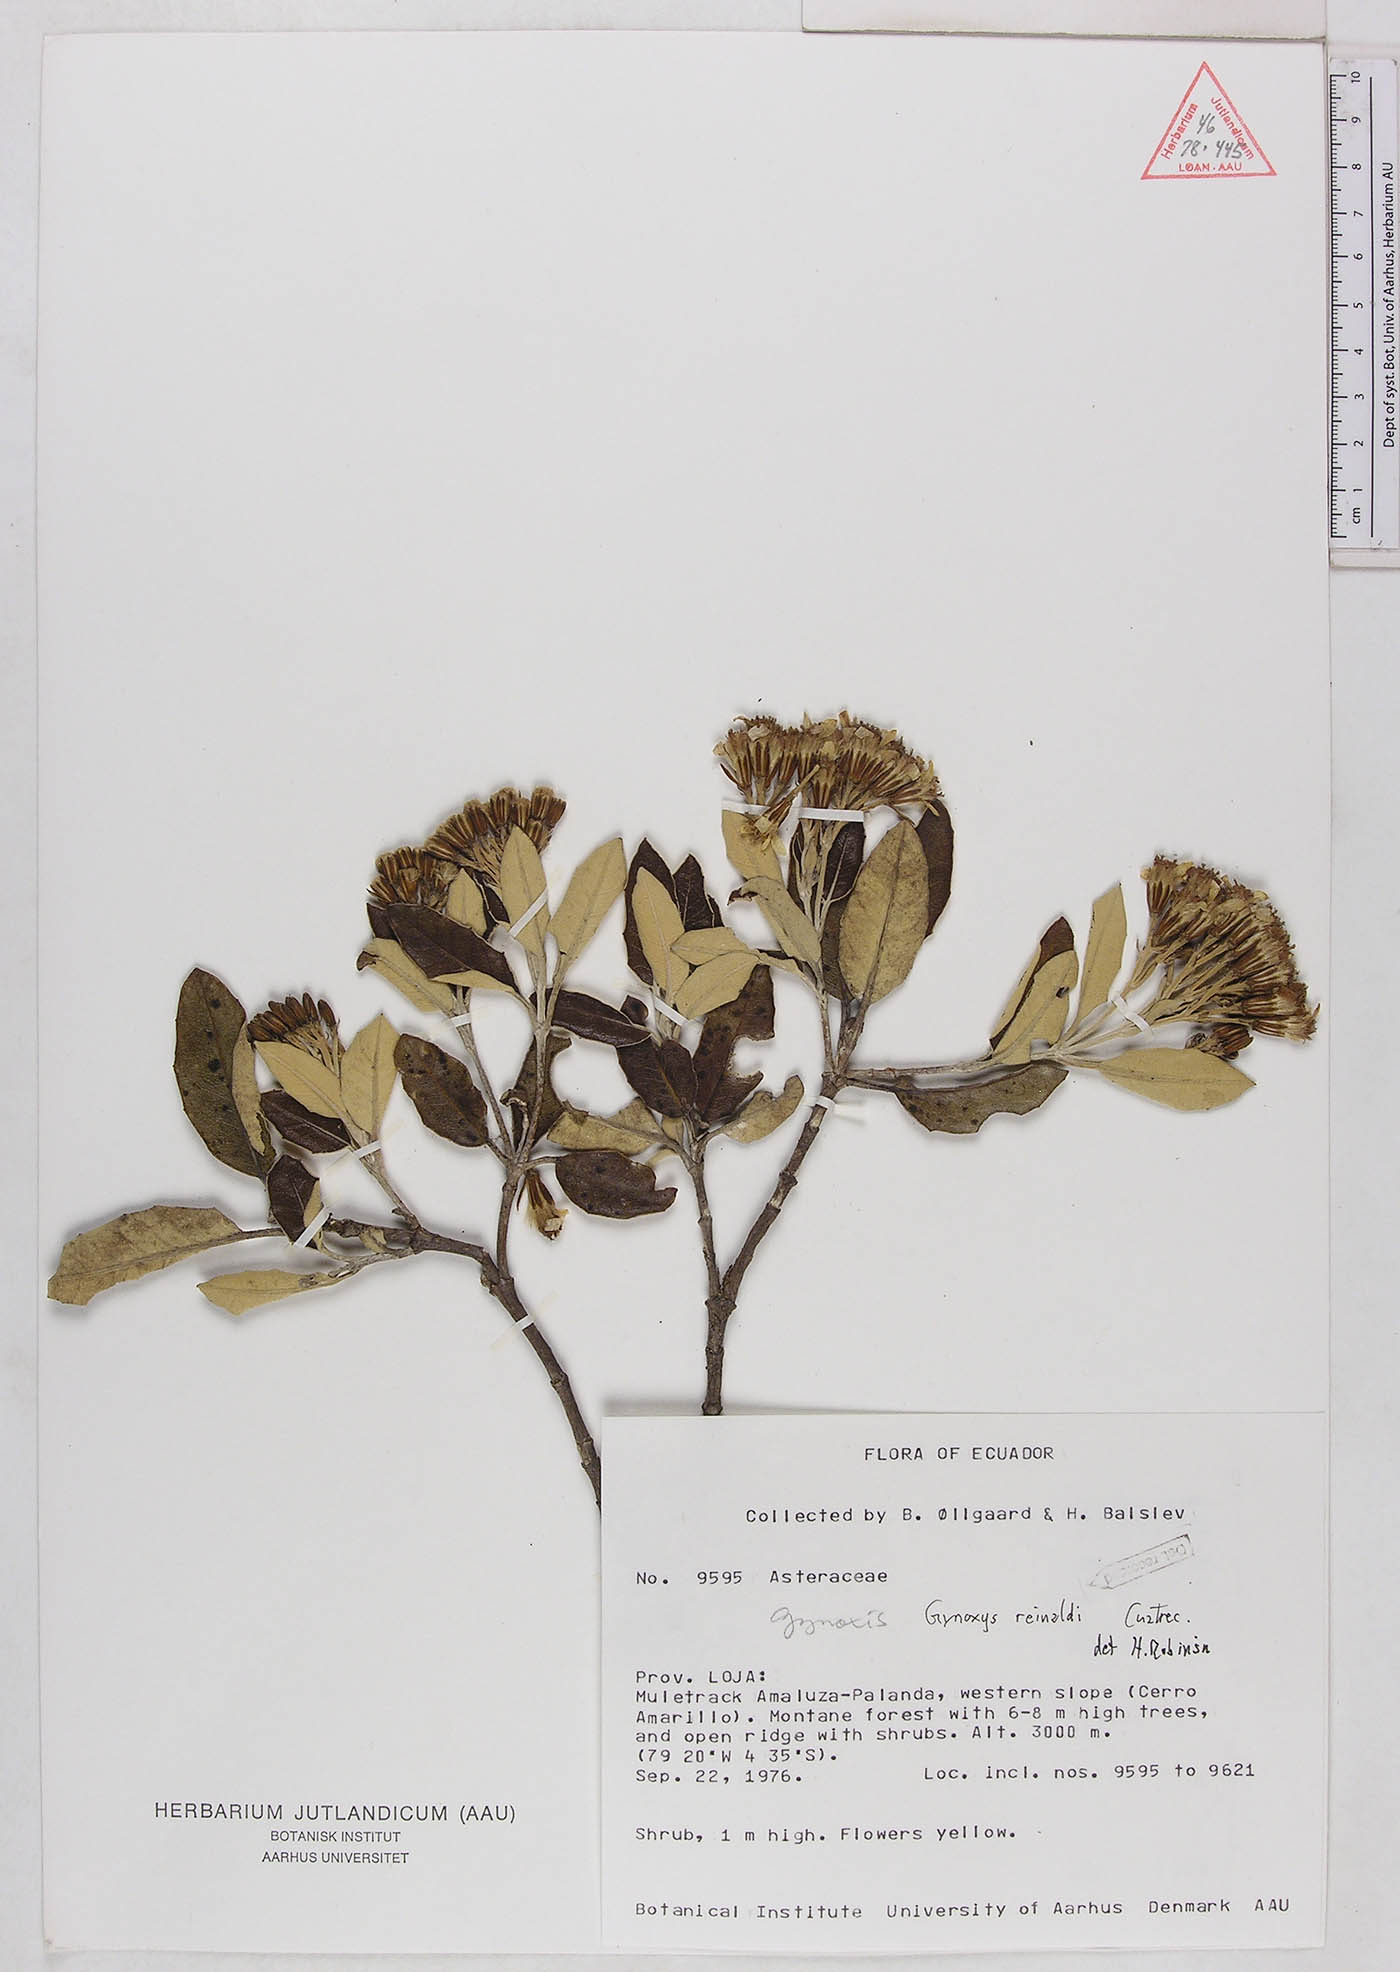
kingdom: Plantae
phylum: Tracheophyta
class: Magnoliopsida
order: Asterales
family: Asteraceae
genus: Gynoxys
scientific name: Gynoxys reinaldi
